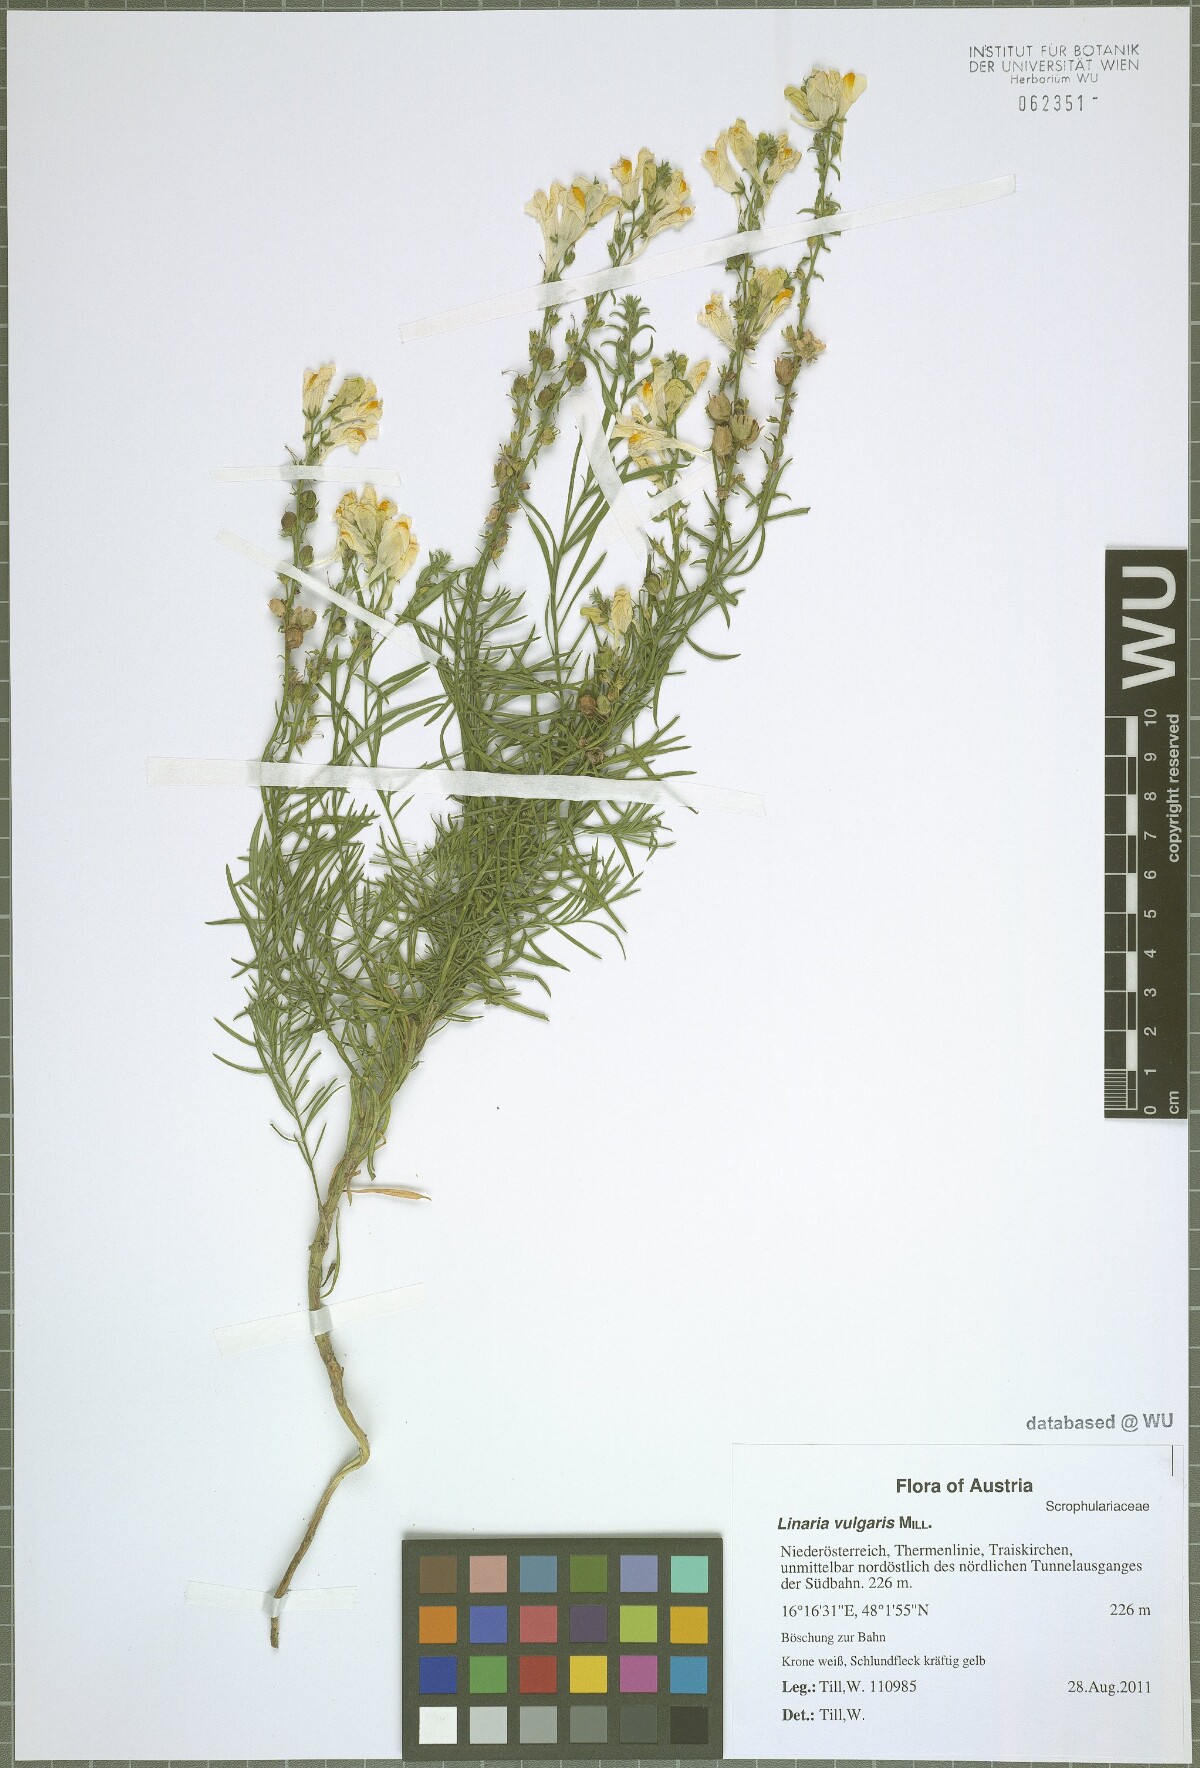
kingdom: Plantae
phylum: Tracheophyta
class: Magnoliopsida
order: Lamiales
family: Plantaginaceae
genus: Linaria
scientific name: Linaria vulgaris
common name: Butter and eggs
